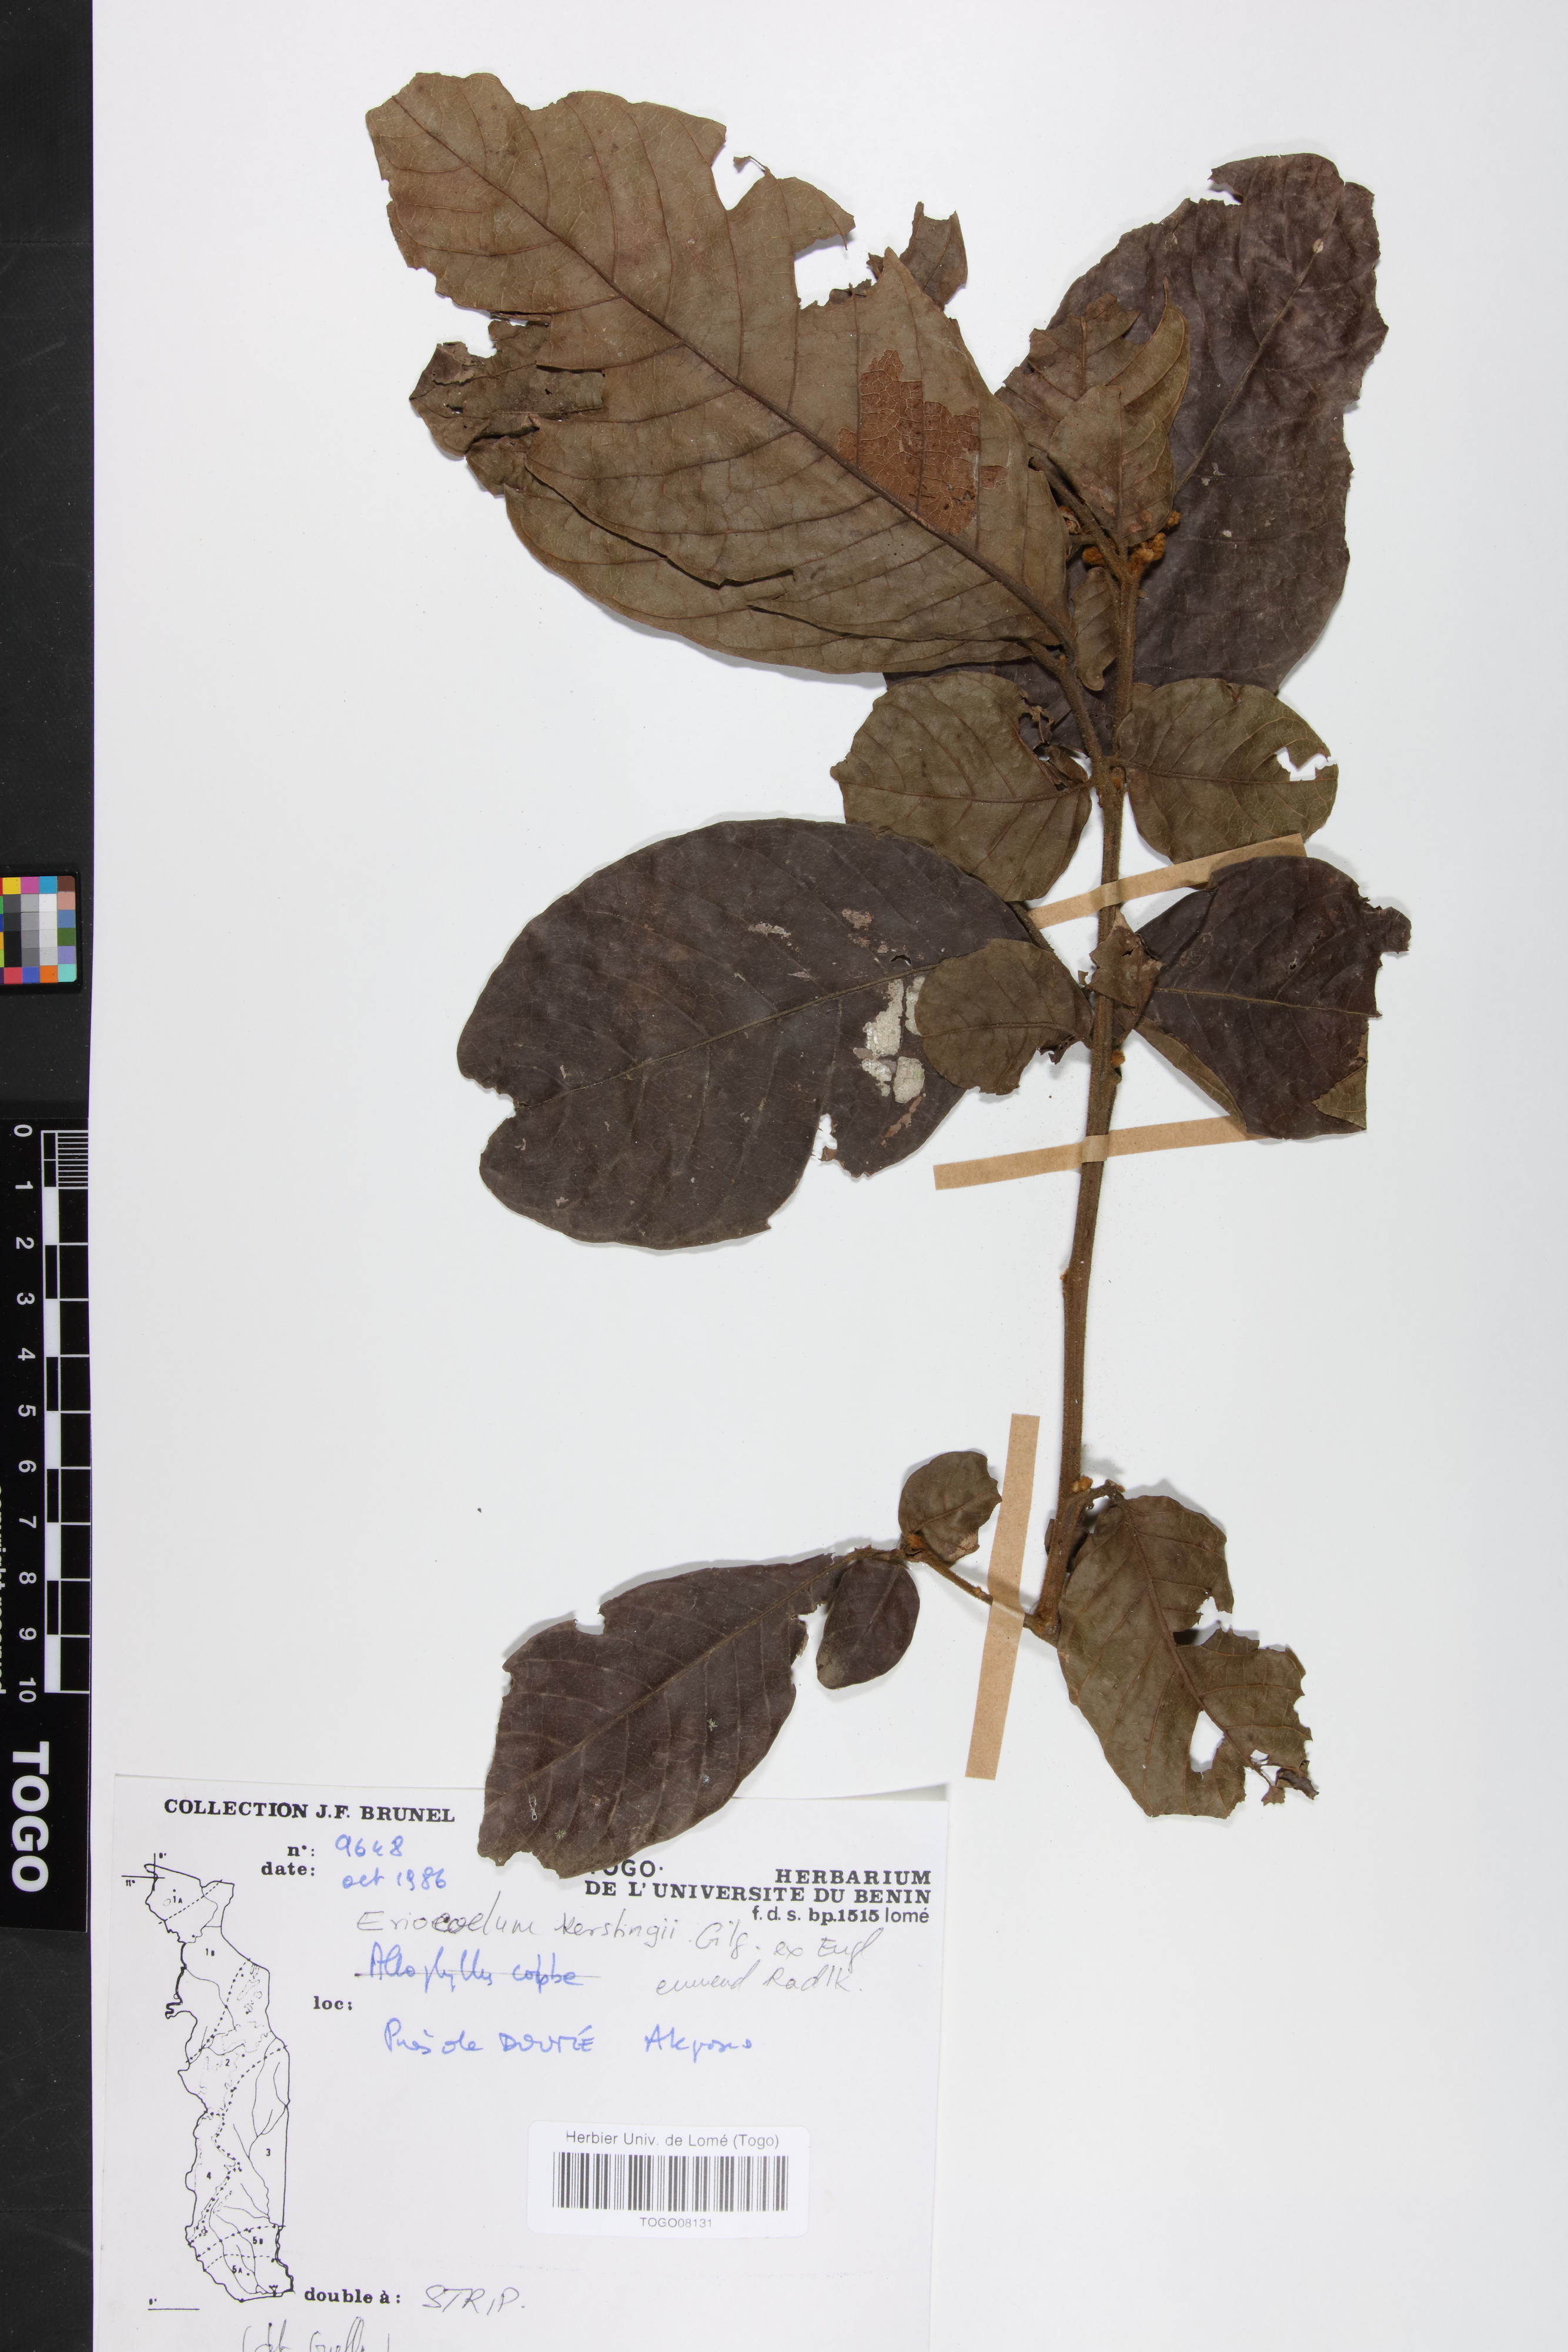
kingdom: Plantae
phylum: Tracheophyta
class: Magnoliopsida
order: Sapindales
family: Sapindaceae
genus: Eriocoelum
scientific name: Eriocoelum kerstingii
